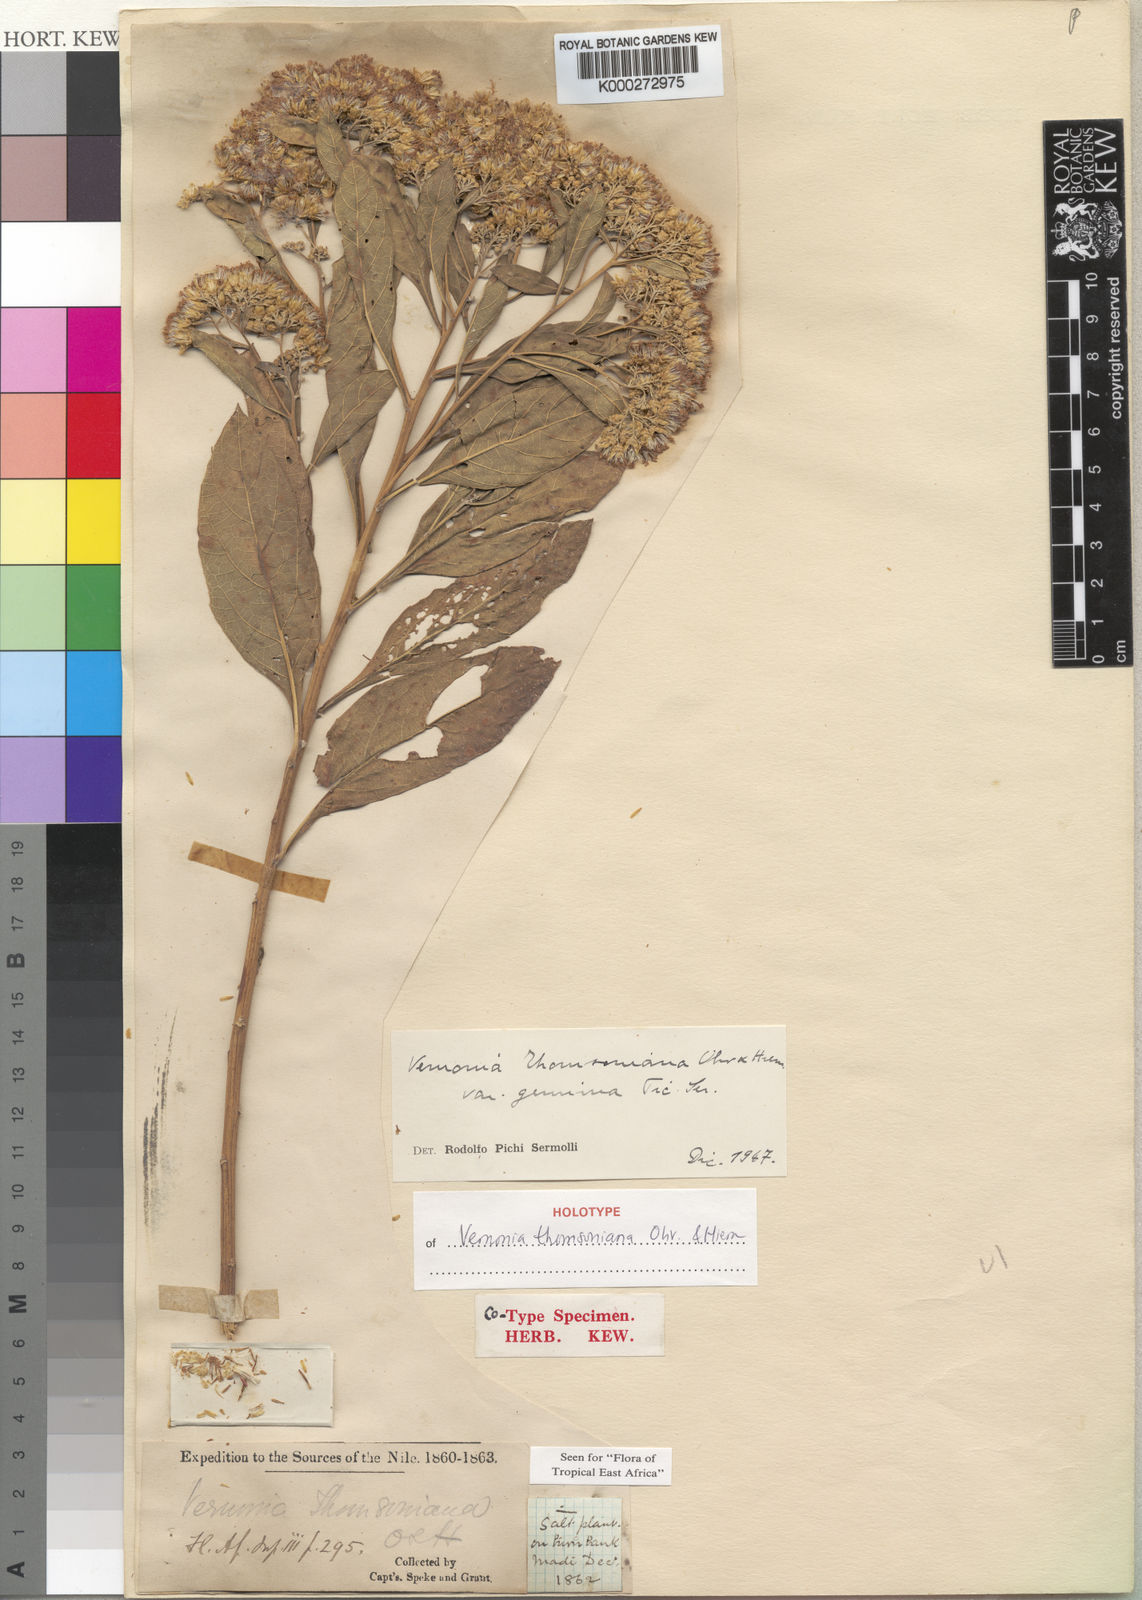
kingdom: Plantae
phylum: Tracheophyta
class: Magnoliopsida
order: Asterales
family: Asteraceae
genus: Gymnanthemum
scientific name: Gymnanthemum thomsonianum
